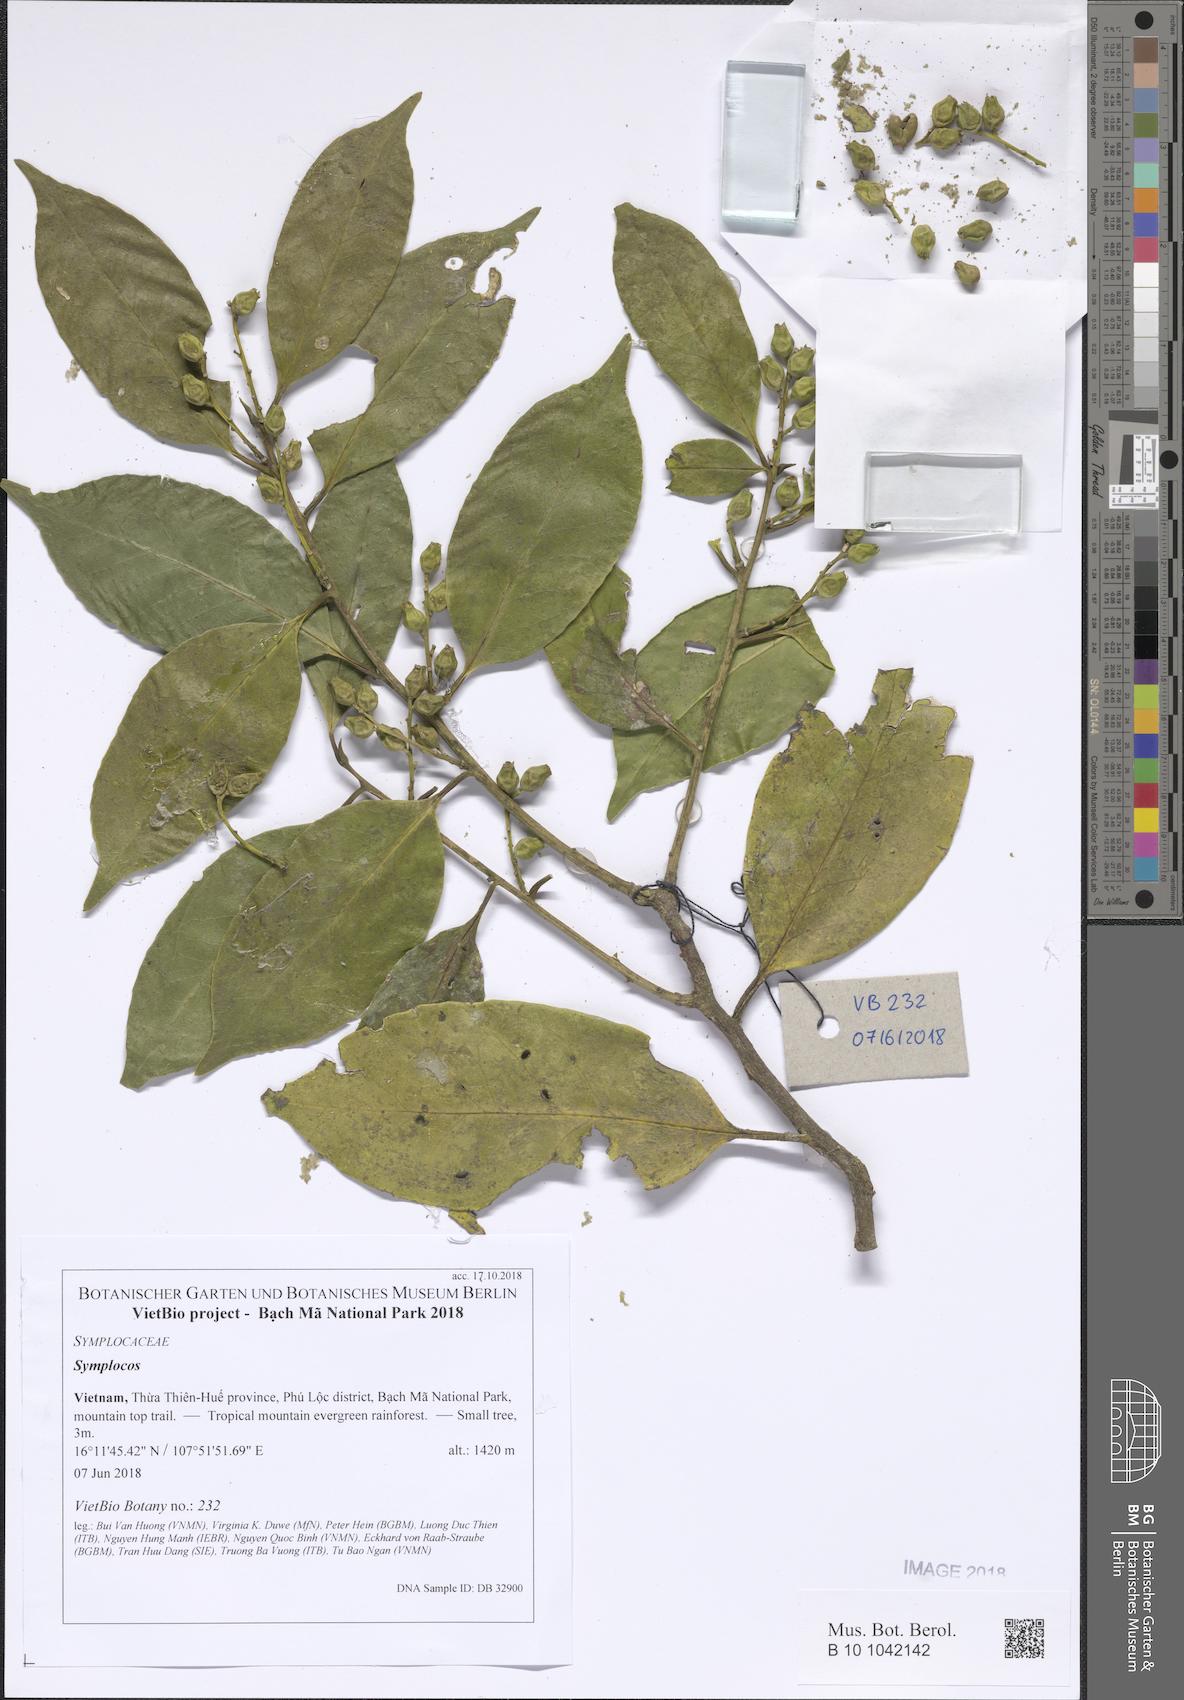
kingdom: Plantae
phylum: Tracheophyta
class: Magnoliopsida
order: Ericales
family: Symplocaceae
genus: Symplocos
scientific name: Symplocos
